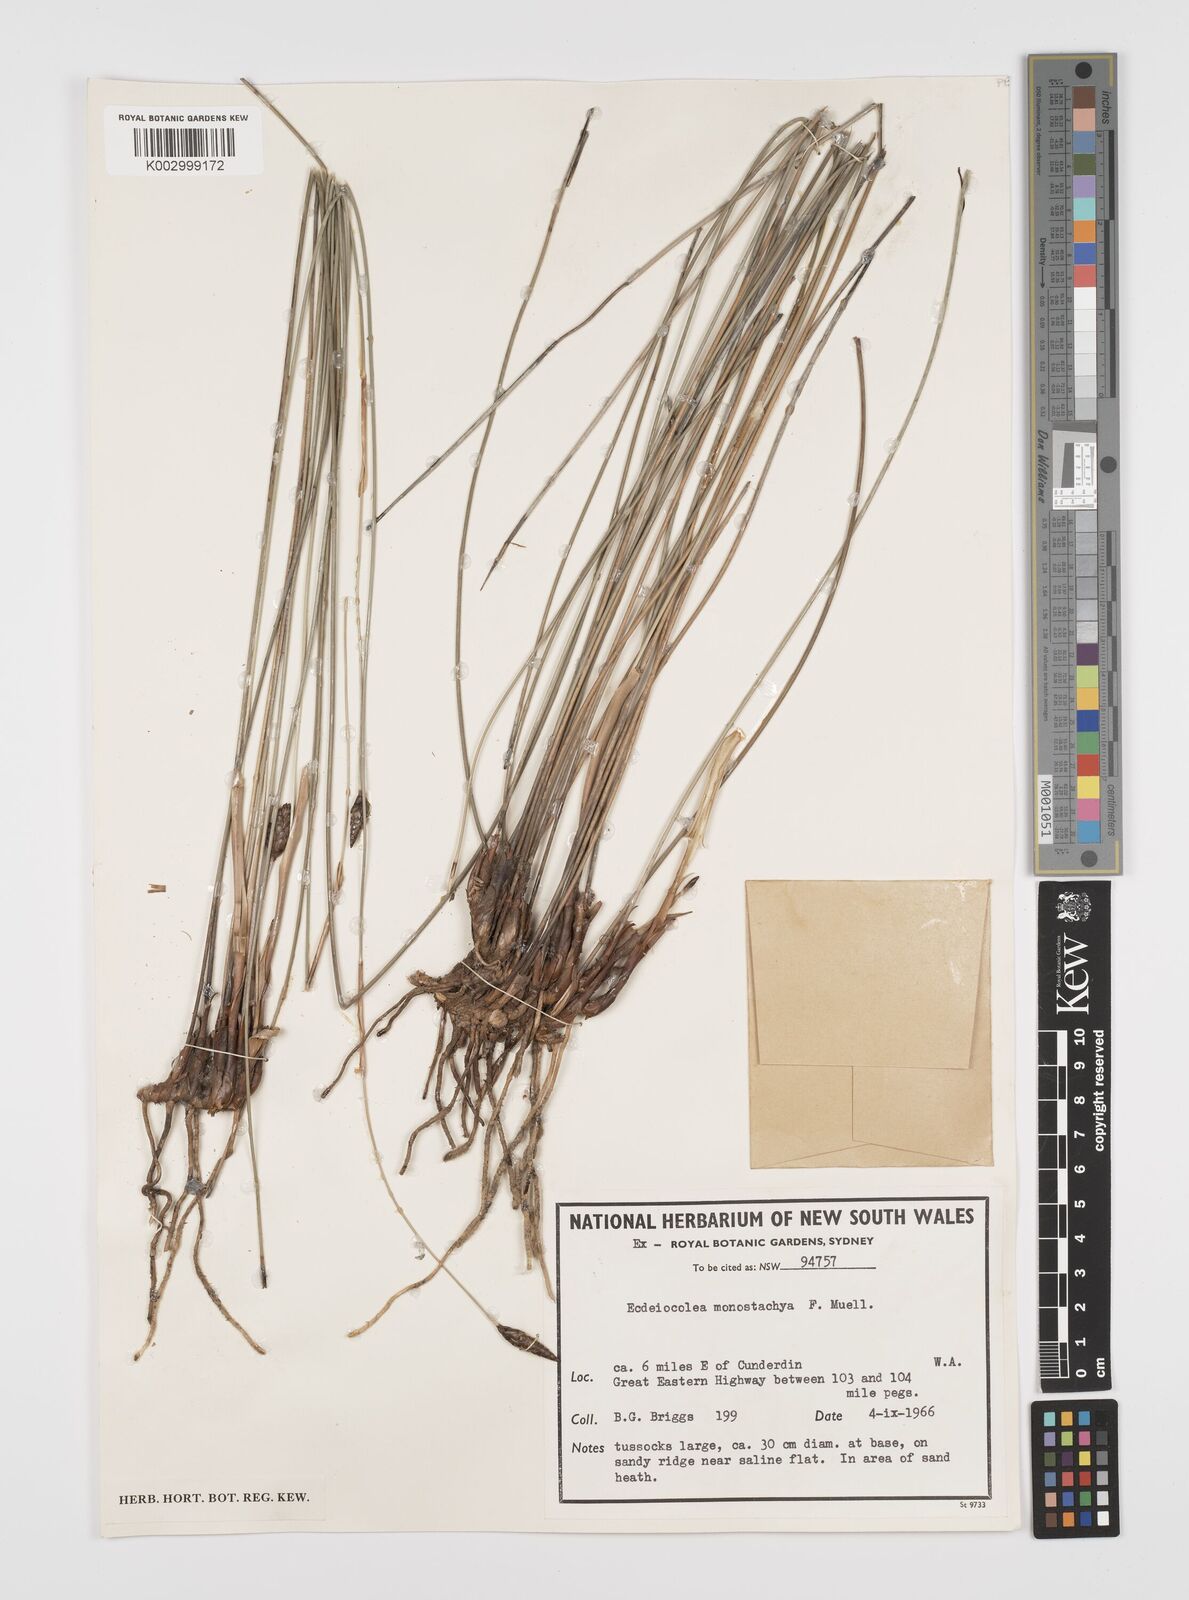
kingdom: Plantae
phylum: Tracheophyta
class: Liliopsida
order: Poales
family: Ecdeiocoleaceae
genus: Ecdeiocolea
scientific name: Ecdeiocolea monostachya
